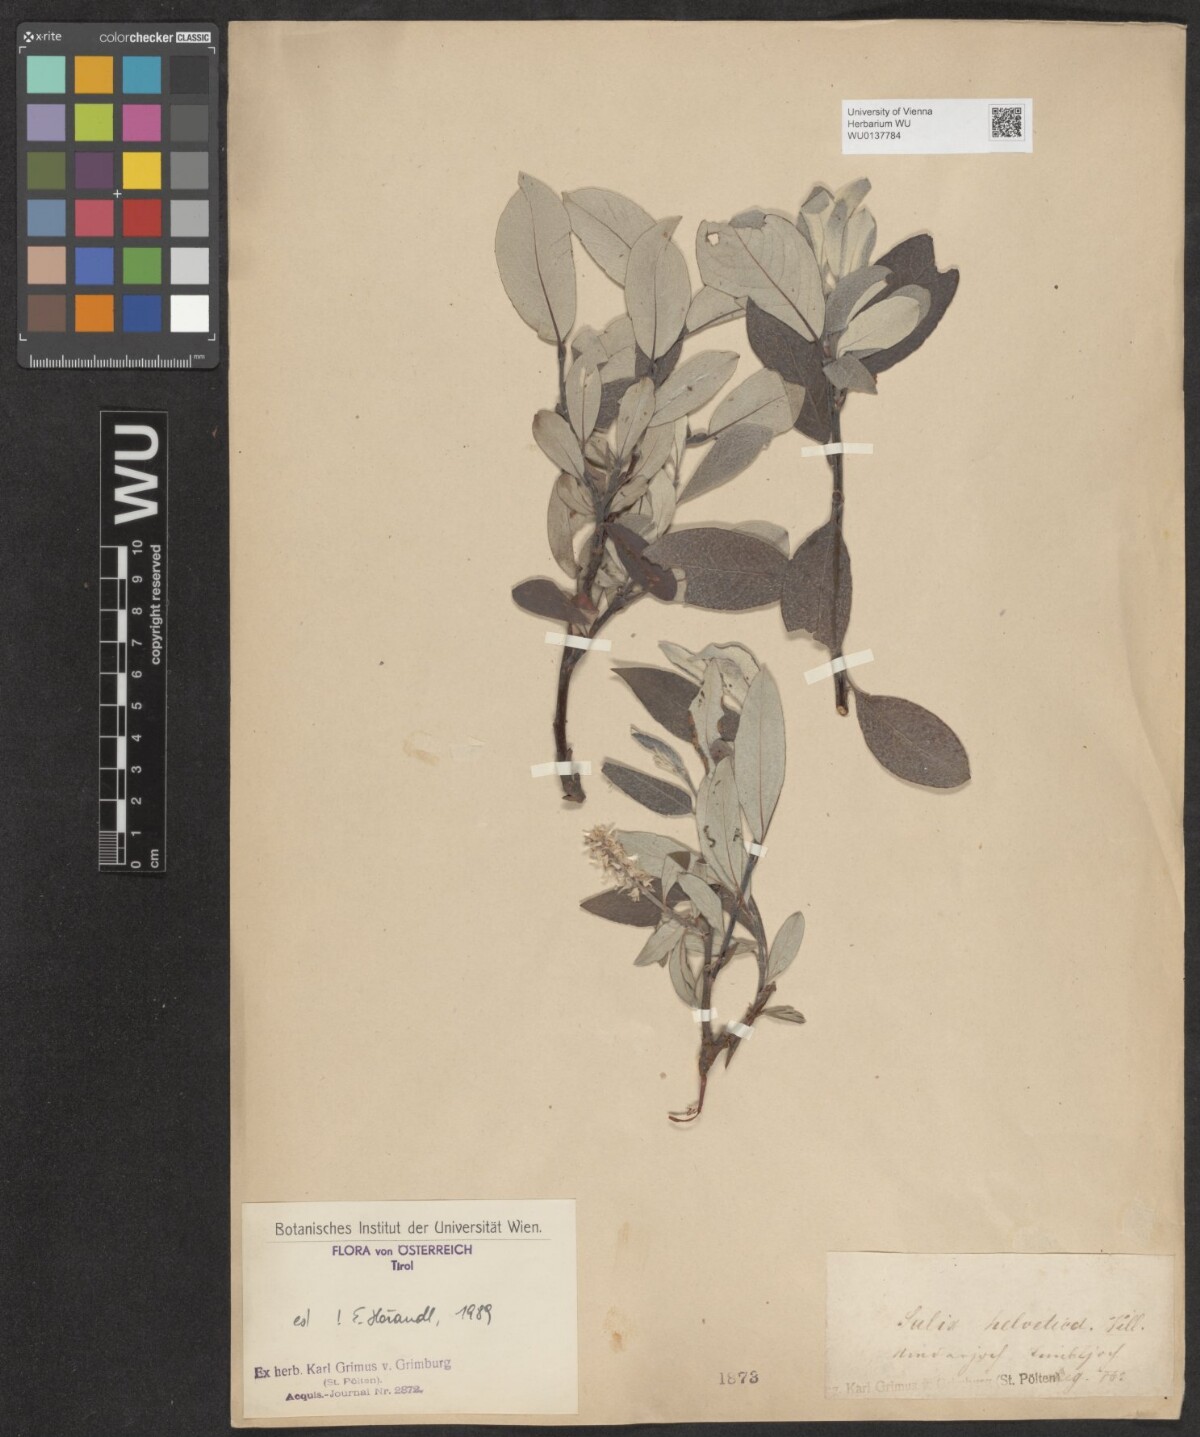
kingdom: Plantae
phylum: Tracheophyta
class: Magnoliopsida
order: Malpighiales
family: Salicaceae
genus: Salix
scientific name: Salix helvetica
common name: Swiss willow
